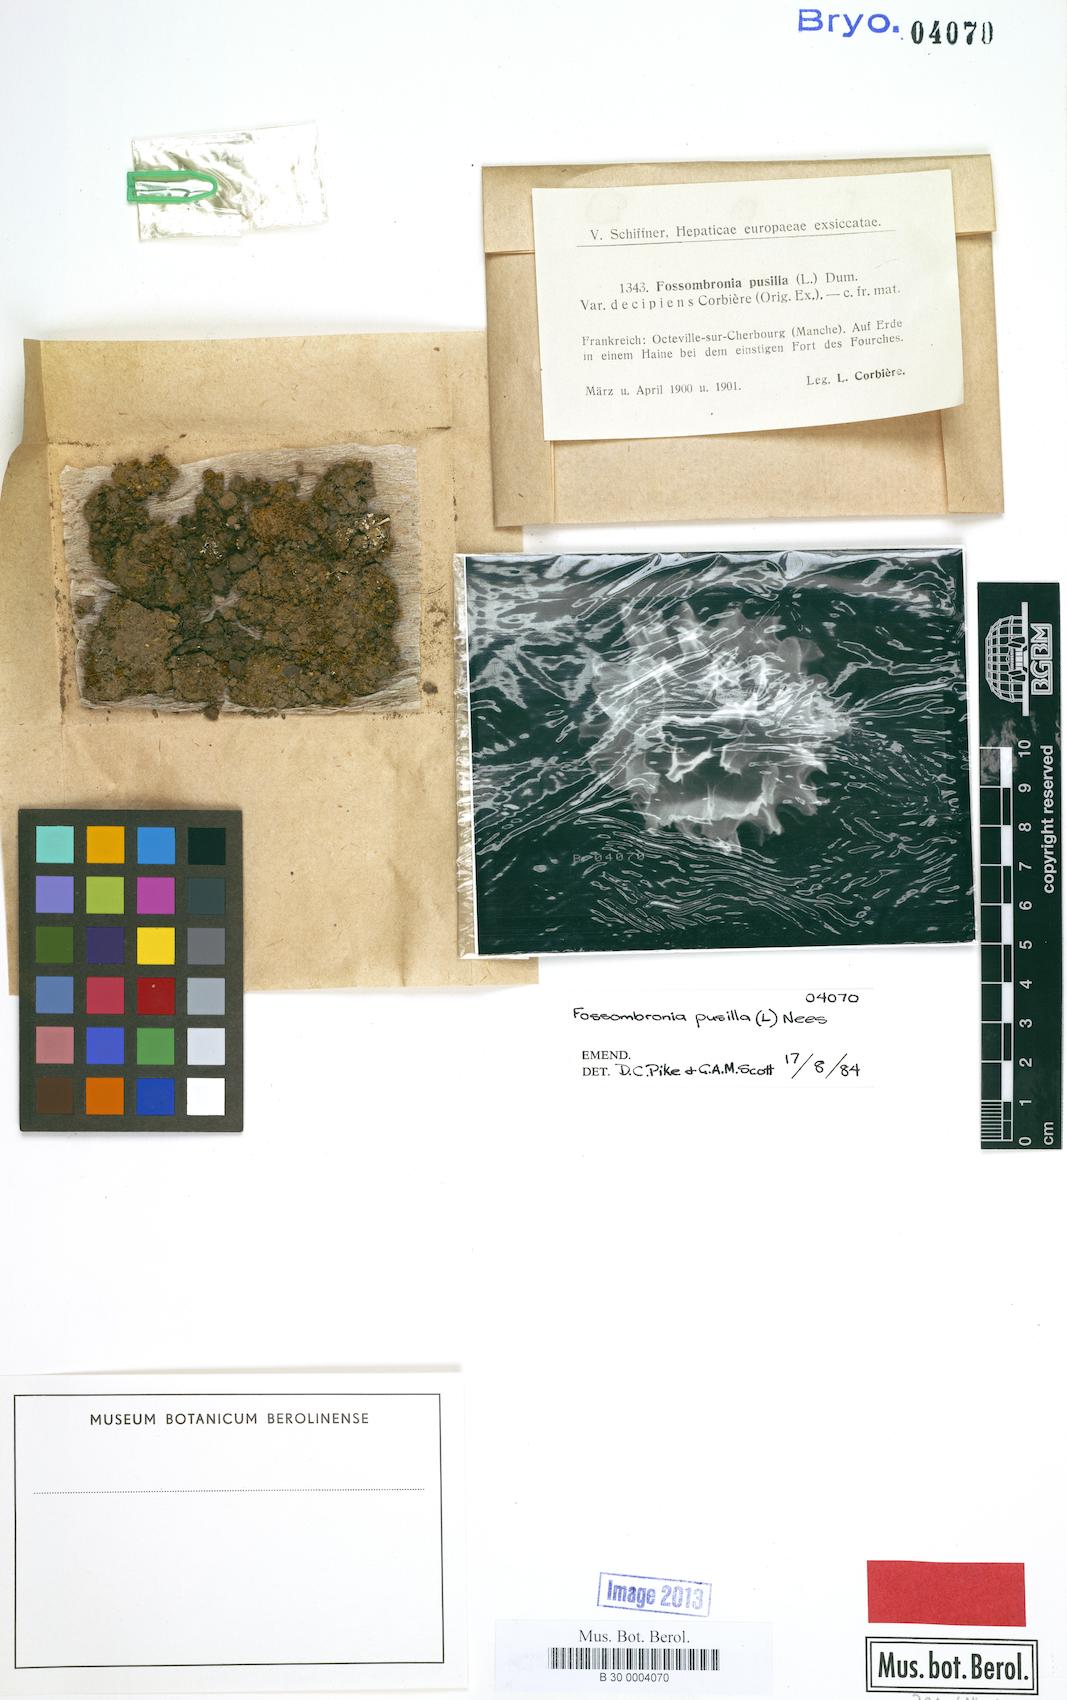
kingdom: Plantae
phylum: Marchantiophyta
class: Jungermanniopsida
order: Fossombroniales
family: Fossombroniaceae
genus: Fossombronia
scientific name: Fossombronia pusilla
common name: Common frillwort
